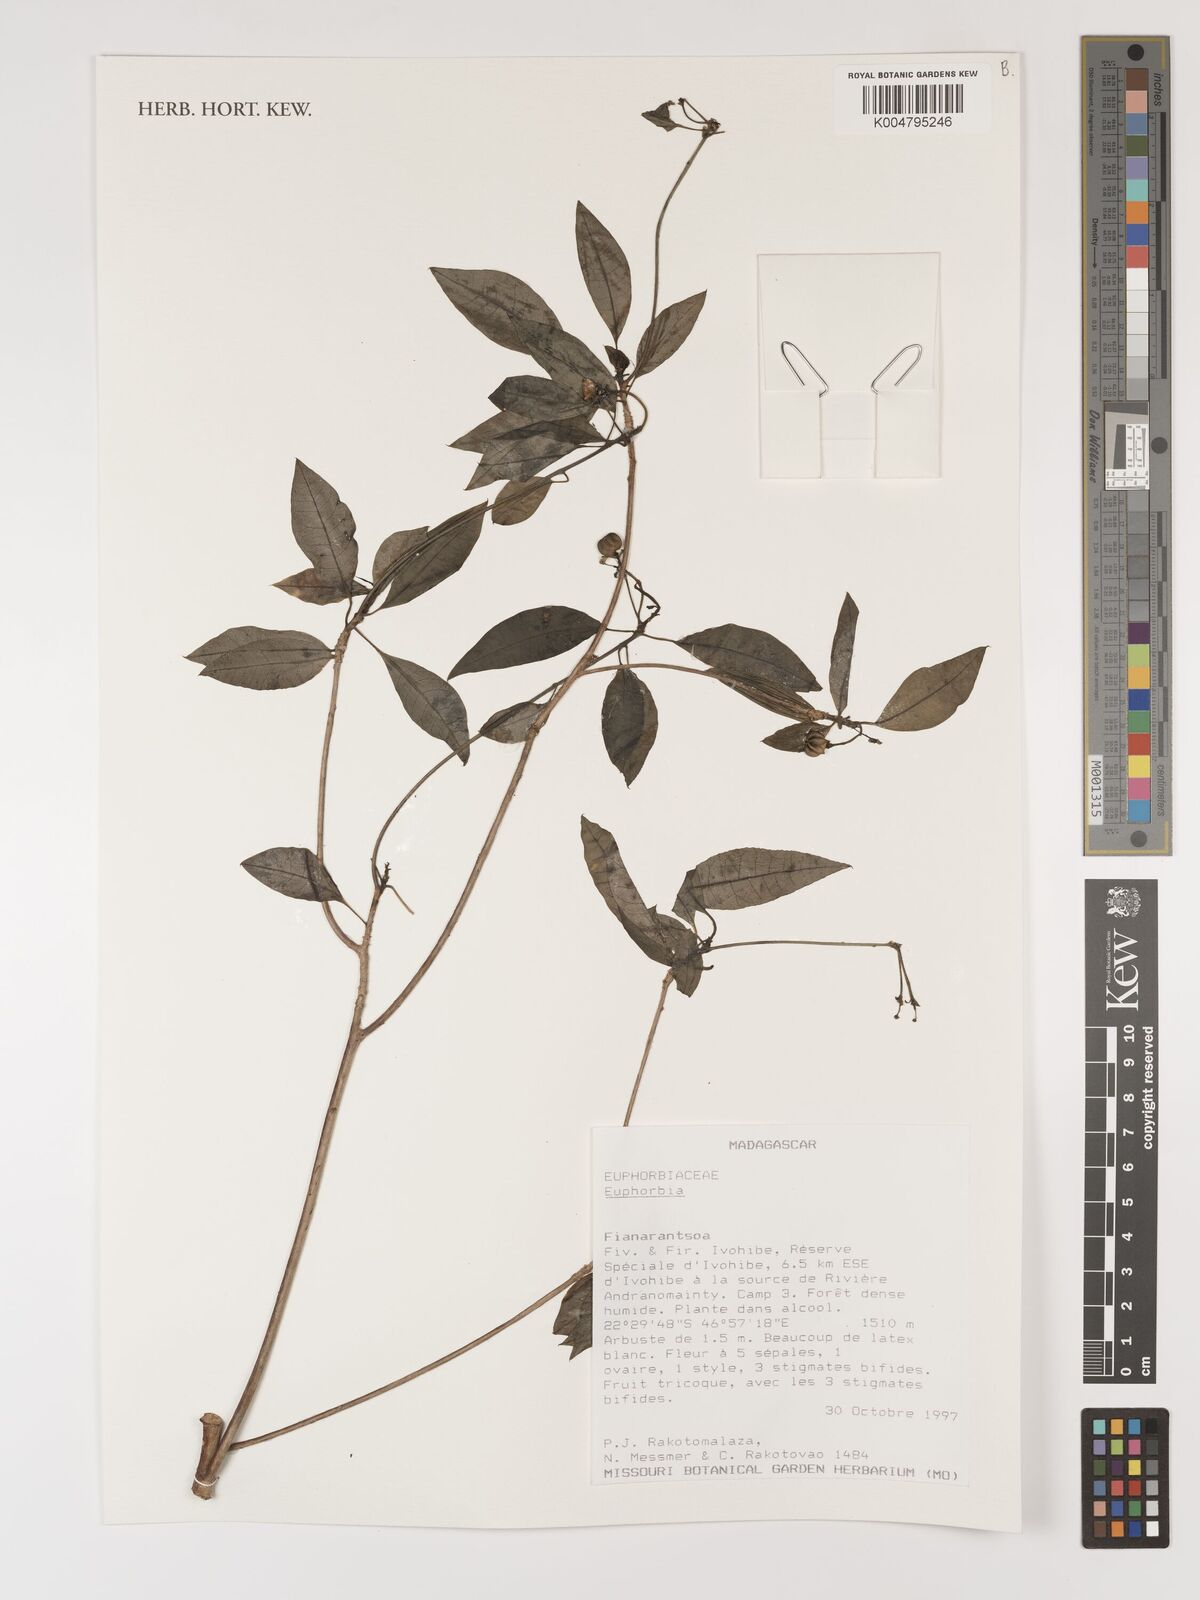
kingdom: Plantae
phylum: Tracheophyta
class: Magnoliopsida
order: Malpighiales
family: Euphorbiaceae
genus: Euphorbia
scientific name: Euphorbia
